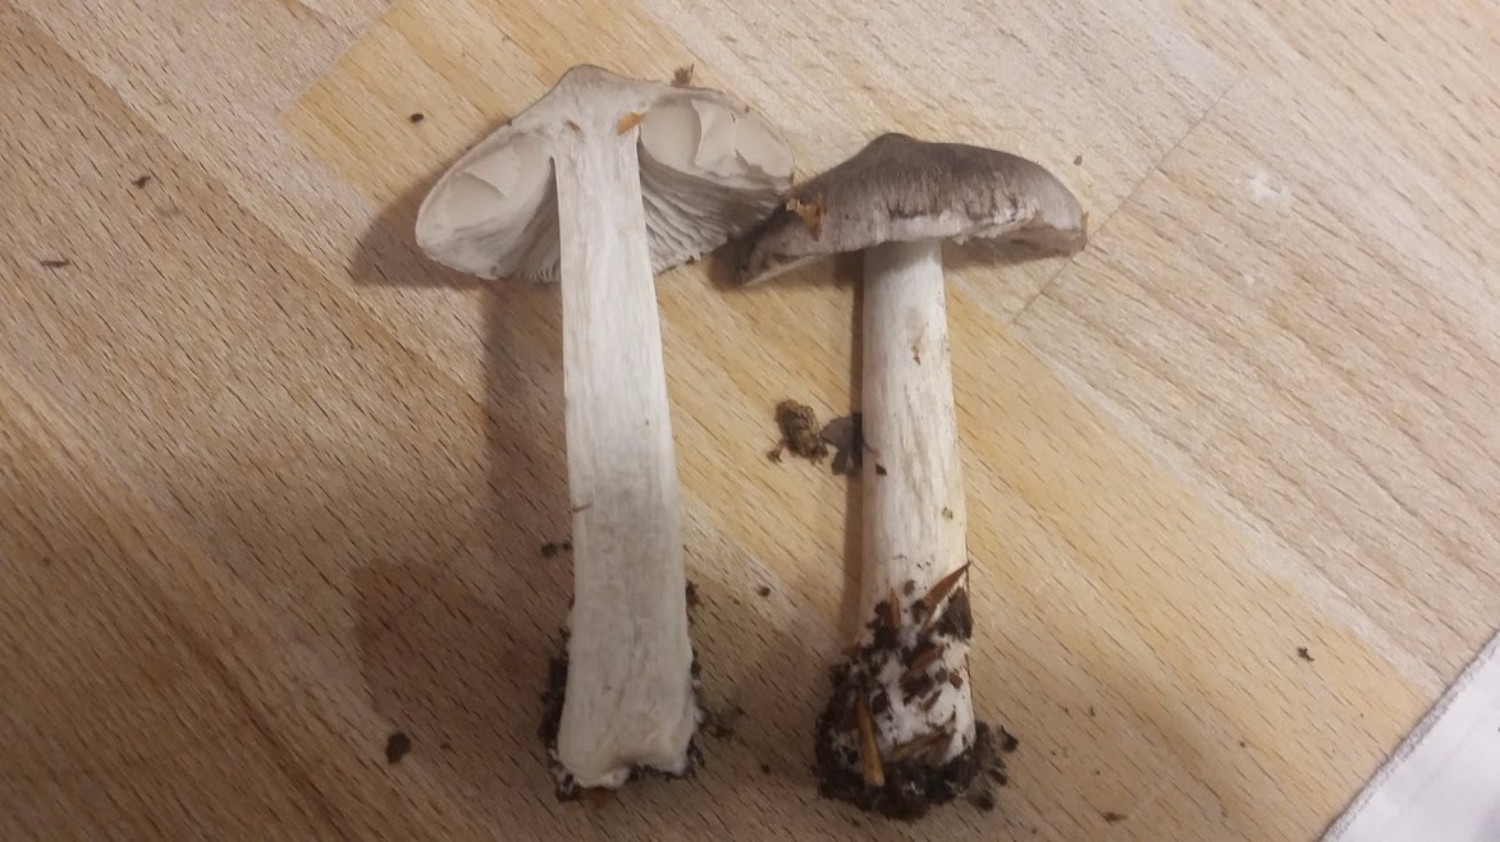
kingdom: Fungi
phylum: Basidiomycota
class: Agaricomycetes
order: Agaricales
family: Tricholomataceae
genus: Tricholoma
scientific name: Tricholoma sciodes
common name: stribet ridderhat
